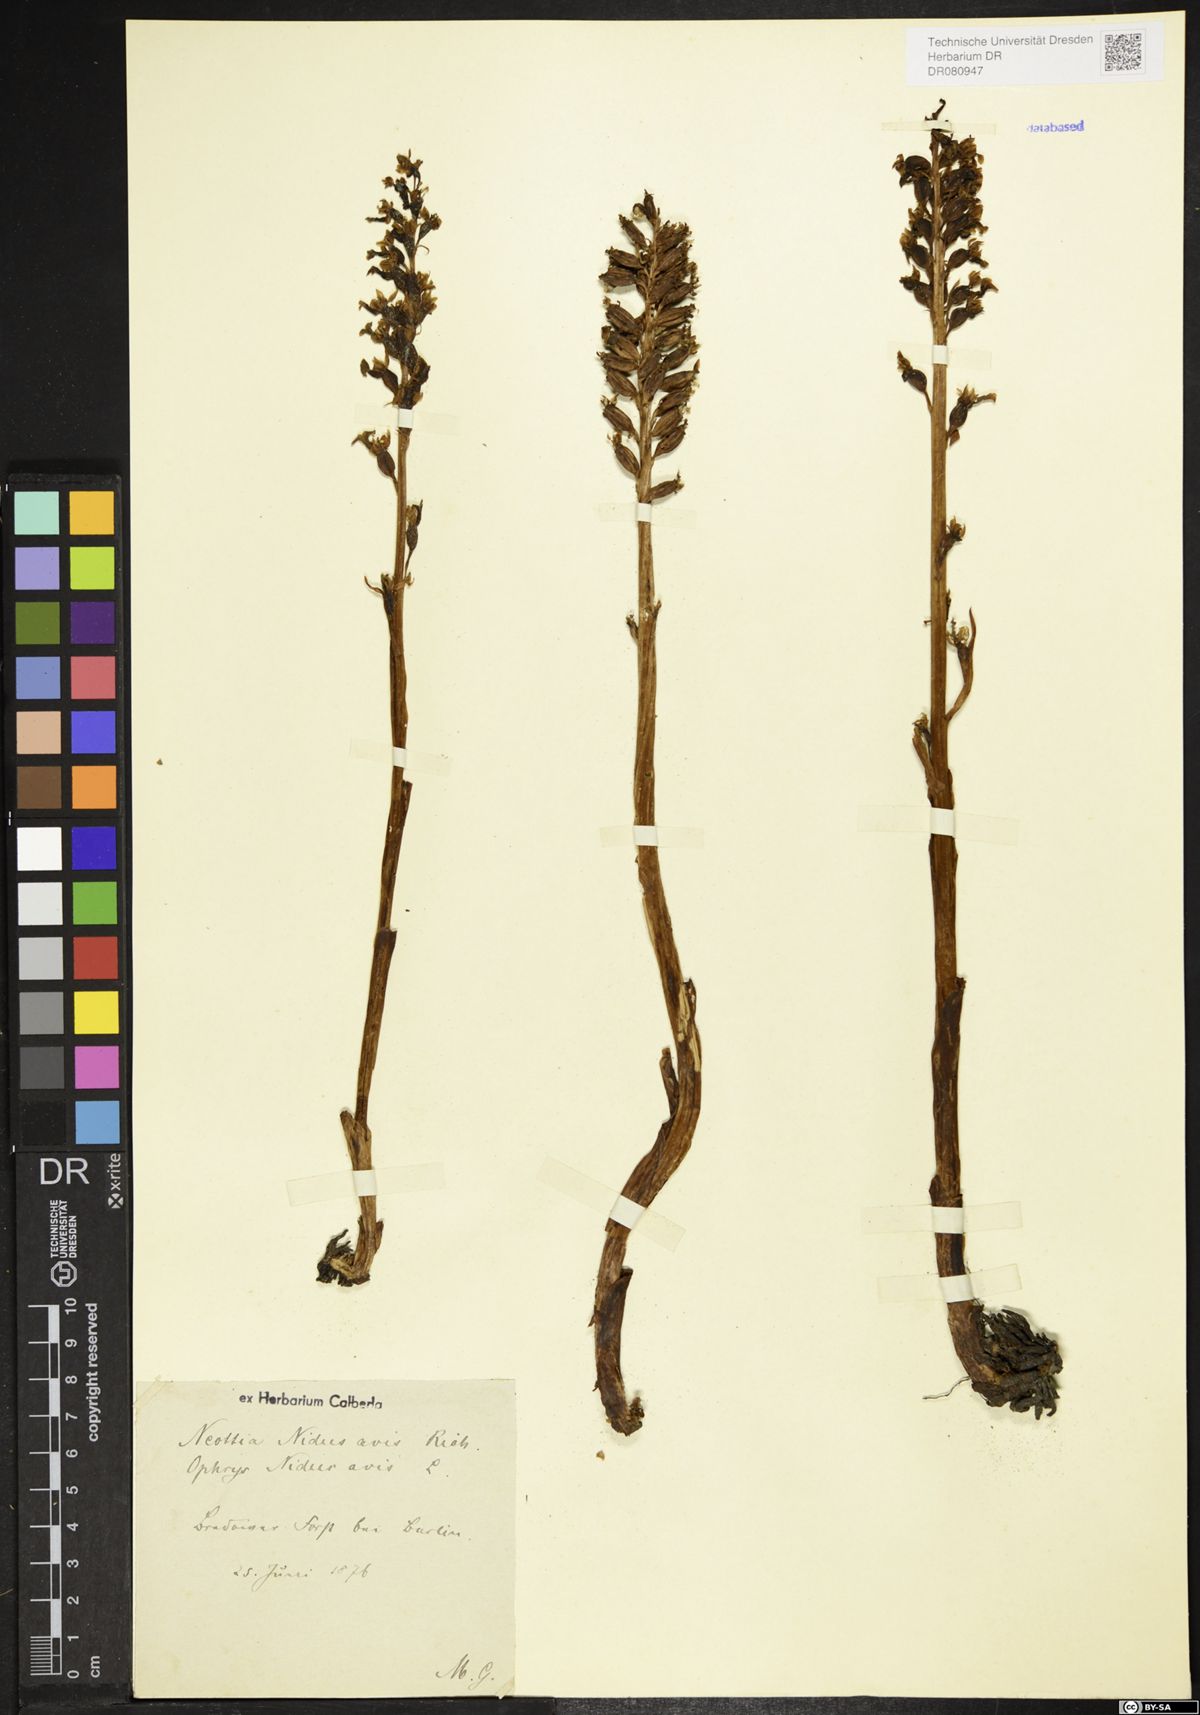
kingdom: Plantae
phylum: Tracheophyta
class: Liliopsida
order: Asparagales
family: Orchidaceae
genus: Neottia
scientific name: Neottia nidus-avis
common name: Bird's-nest orchid
